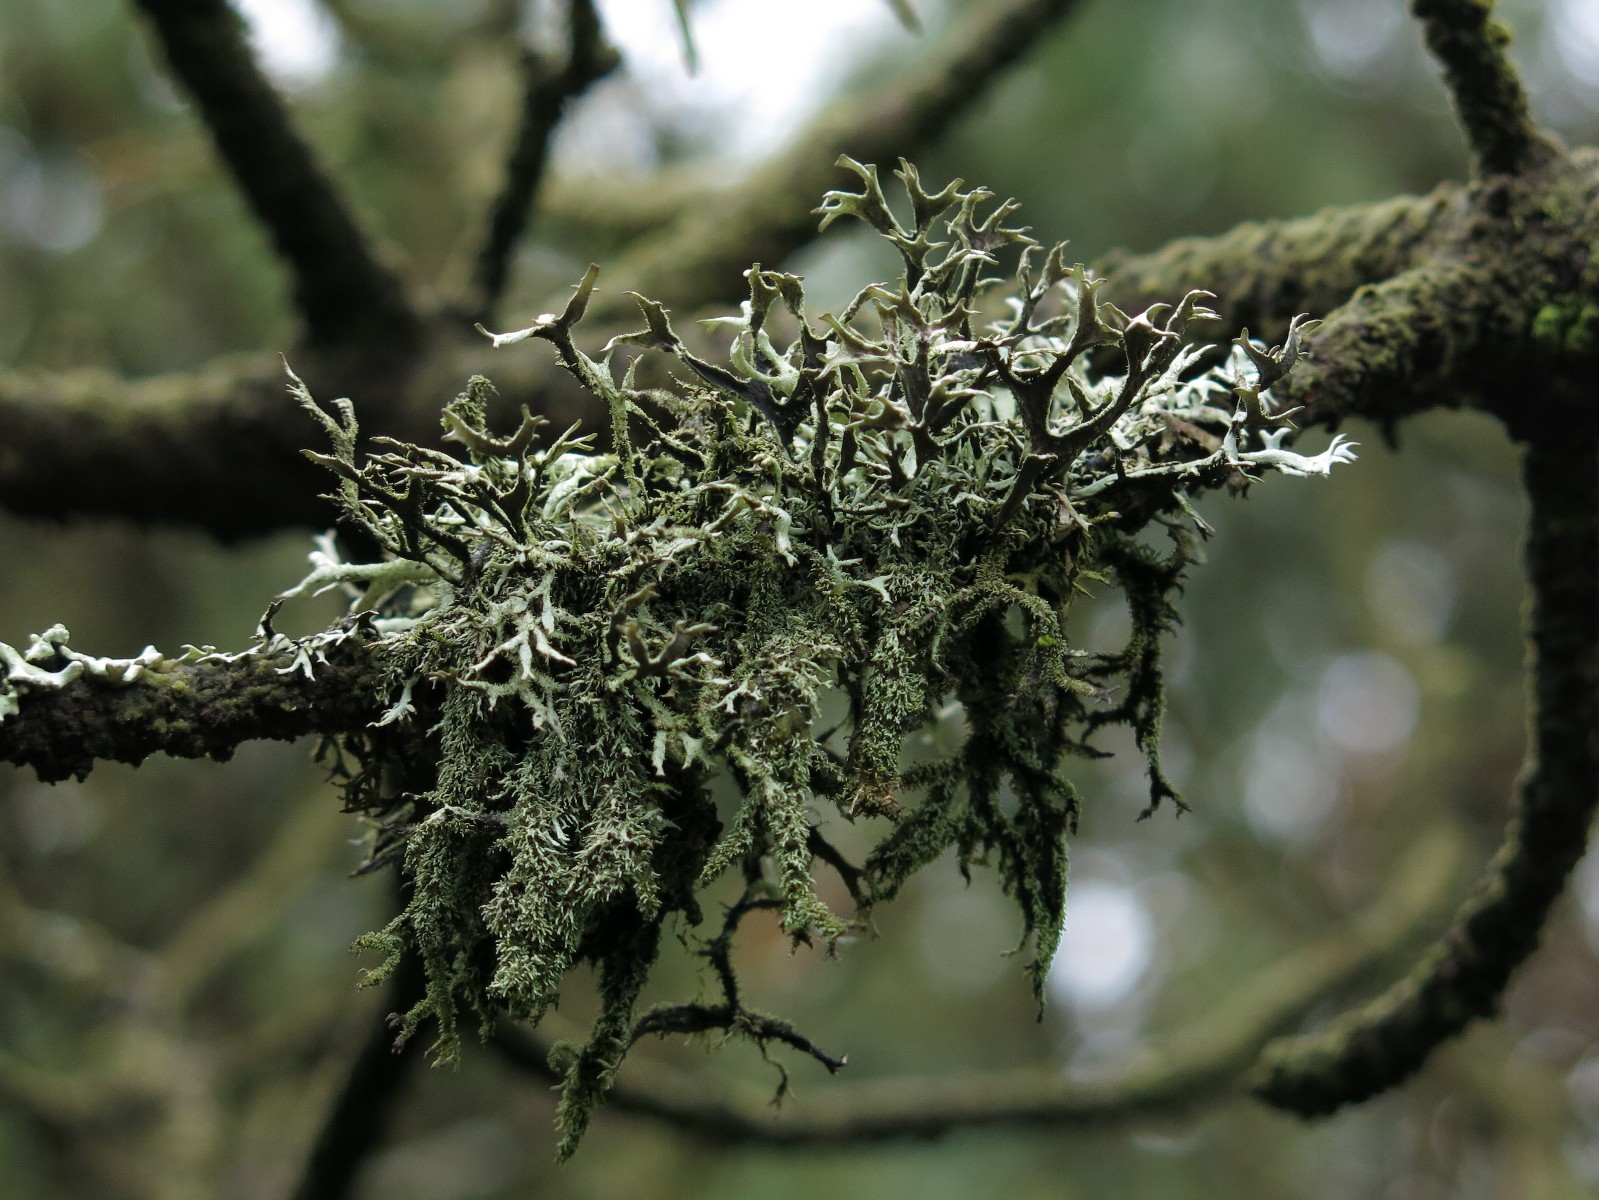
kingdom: Fungi
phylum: Ascomycota
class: Lecanoromycetes
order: Lecanorales
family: Parmeliaceae
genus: Pseudevernia
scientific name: Pseudevernia furfuracea
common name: grå fyrrelav
